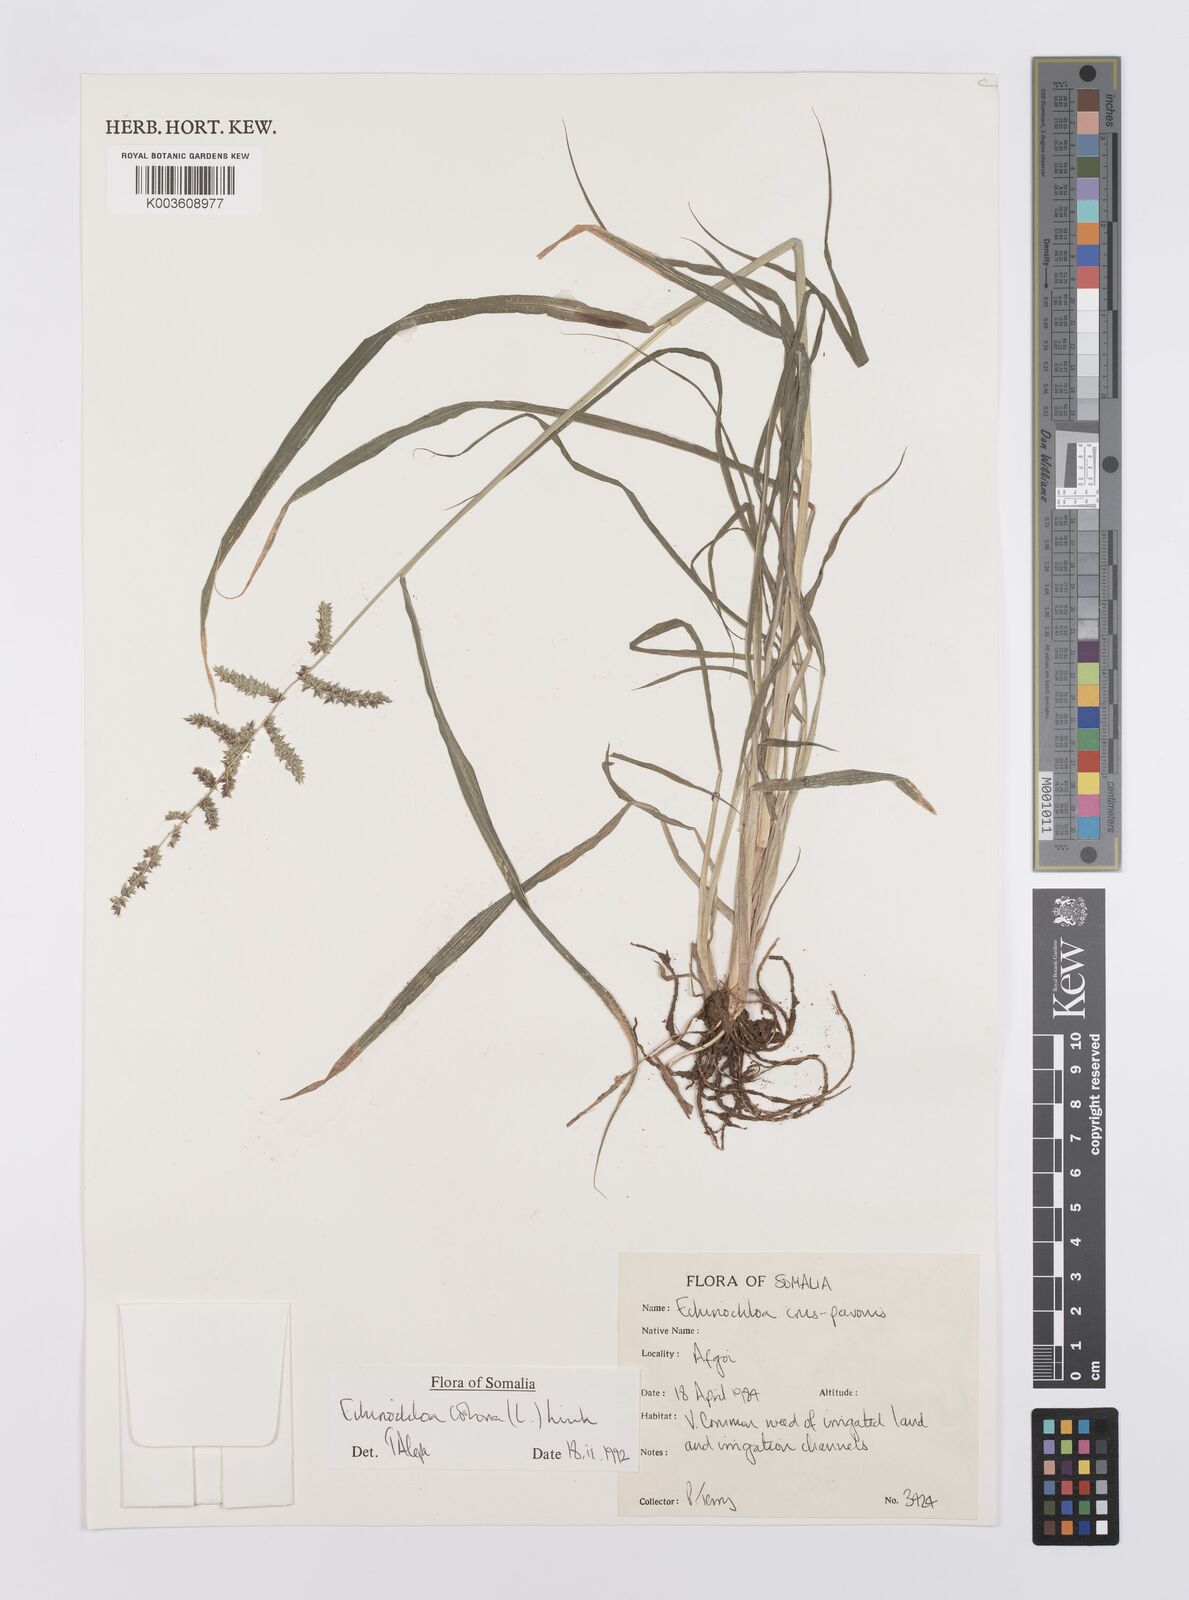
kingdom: Plantae
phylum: Tracheophyta
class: Liliopsida
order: Poales
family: Poaceae
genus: Echinochloa
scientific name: Echinochloa colonum
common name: Jungle rice
